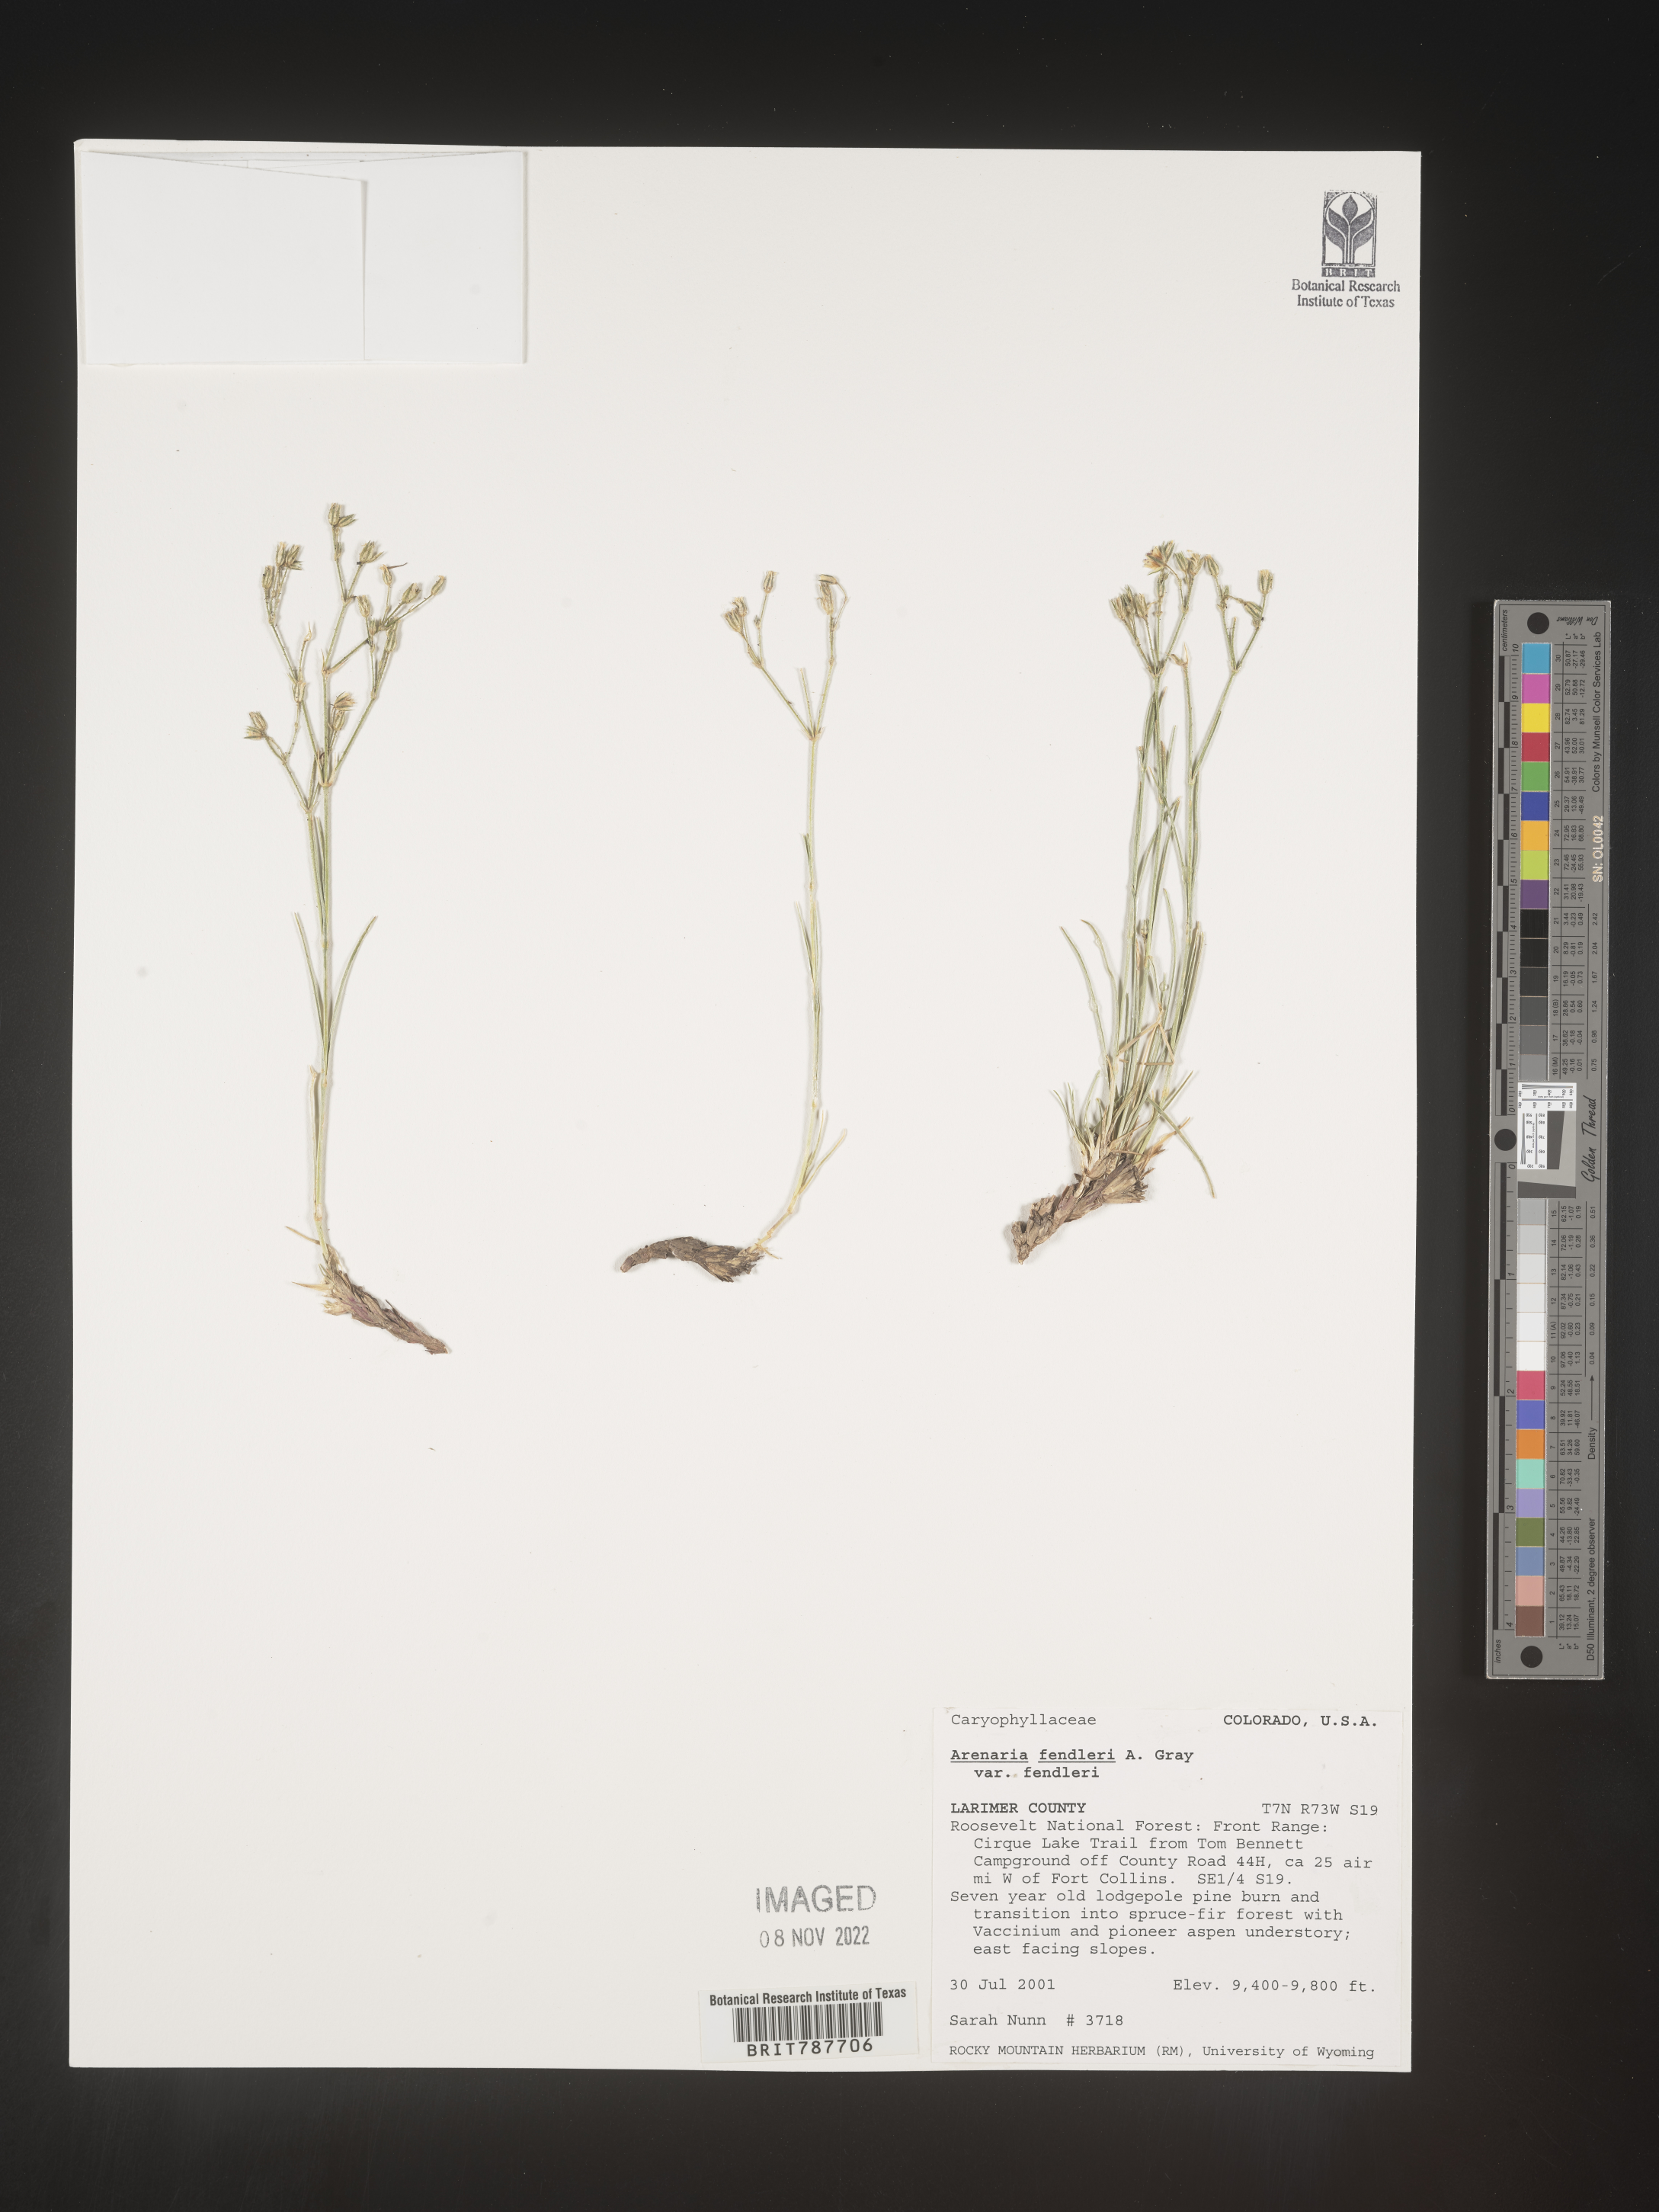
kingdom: Plantae
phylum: Tracheophyta
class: Magnoliopsida
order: Caryophyllales
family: Caryophyllaceae
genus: Arenaria
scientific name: Arenaria
